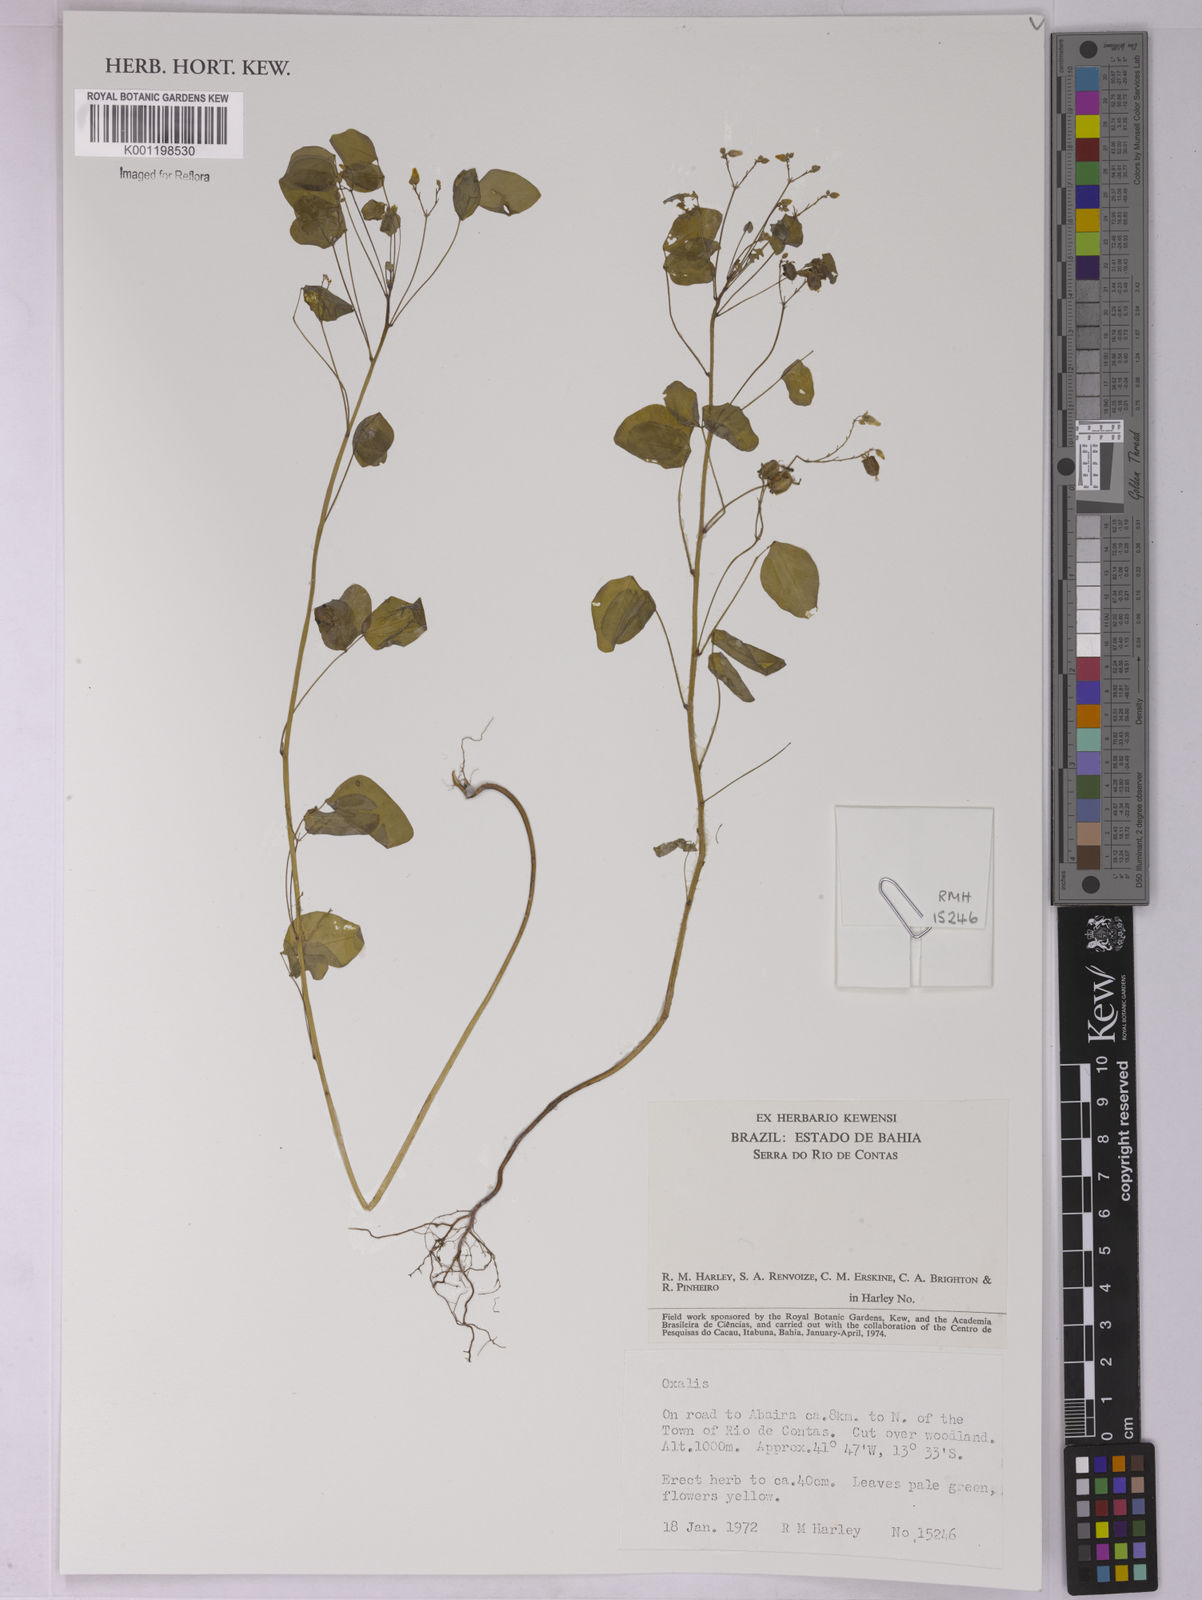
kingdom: Plantae
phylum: Tracheophyta
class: Magnoliopsida
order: Oxalidales
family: Oxalidaceae
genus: Oxalis
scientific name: Oxalis
